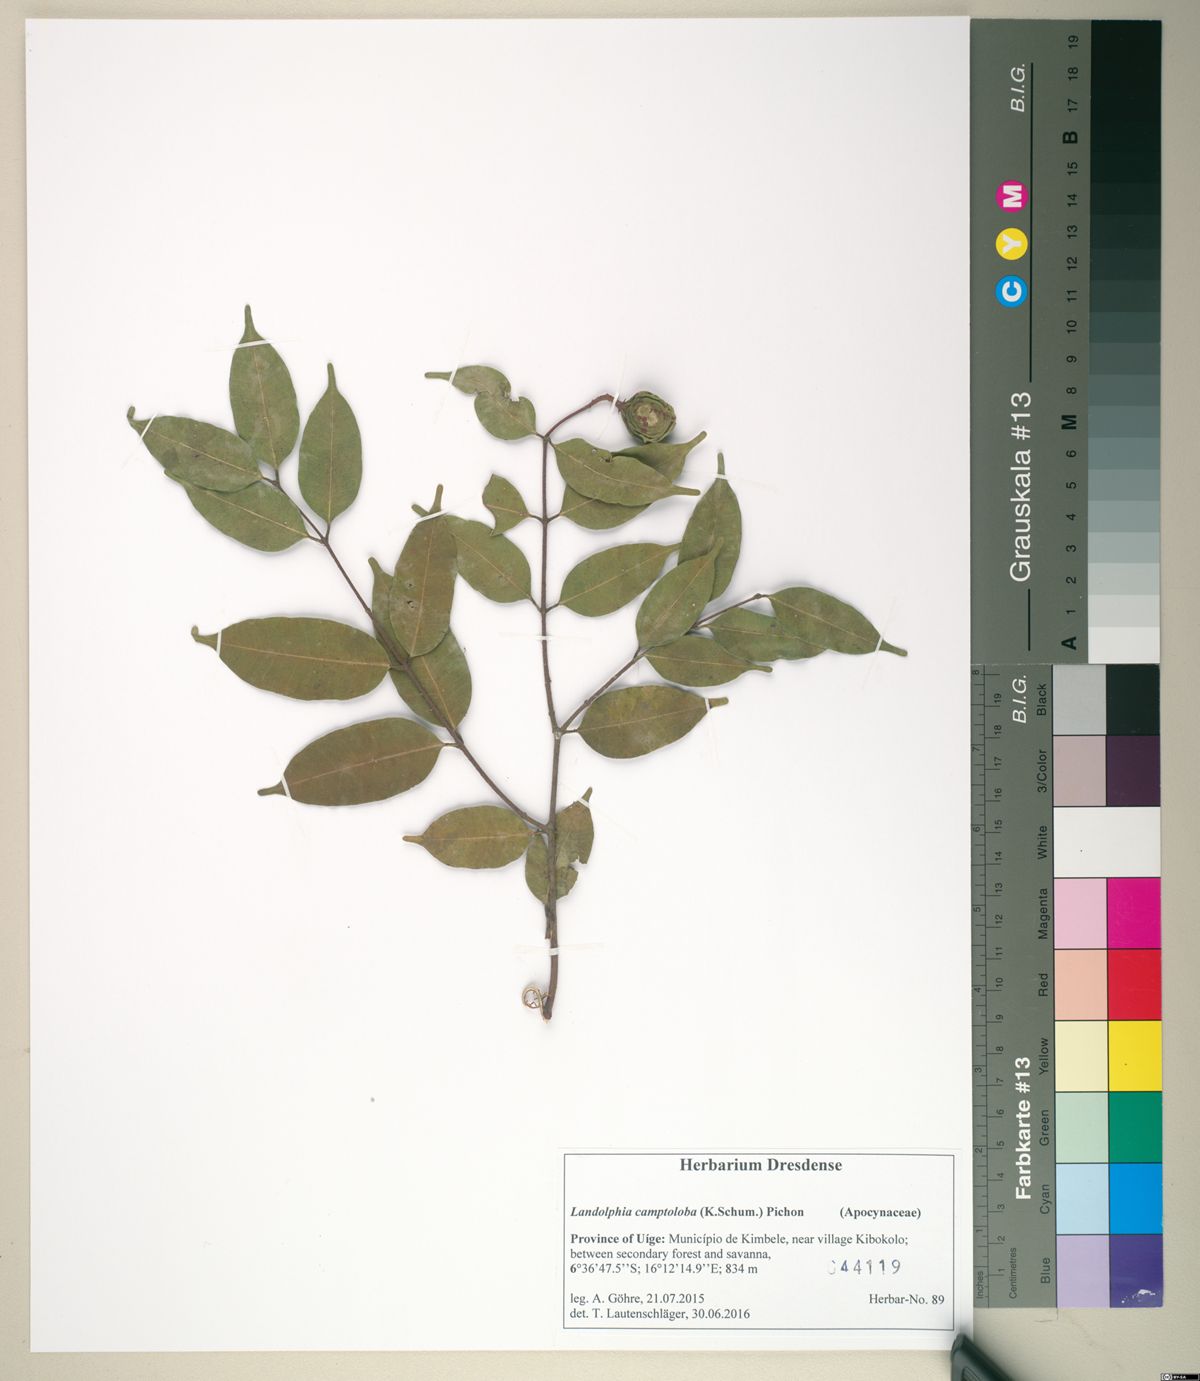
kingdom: Plantae
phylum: Tracheophyta
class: Magnoliopsida
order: Gentianales
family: Apocynaceae
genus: Landolphia
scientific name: Landolphia camptoloba
